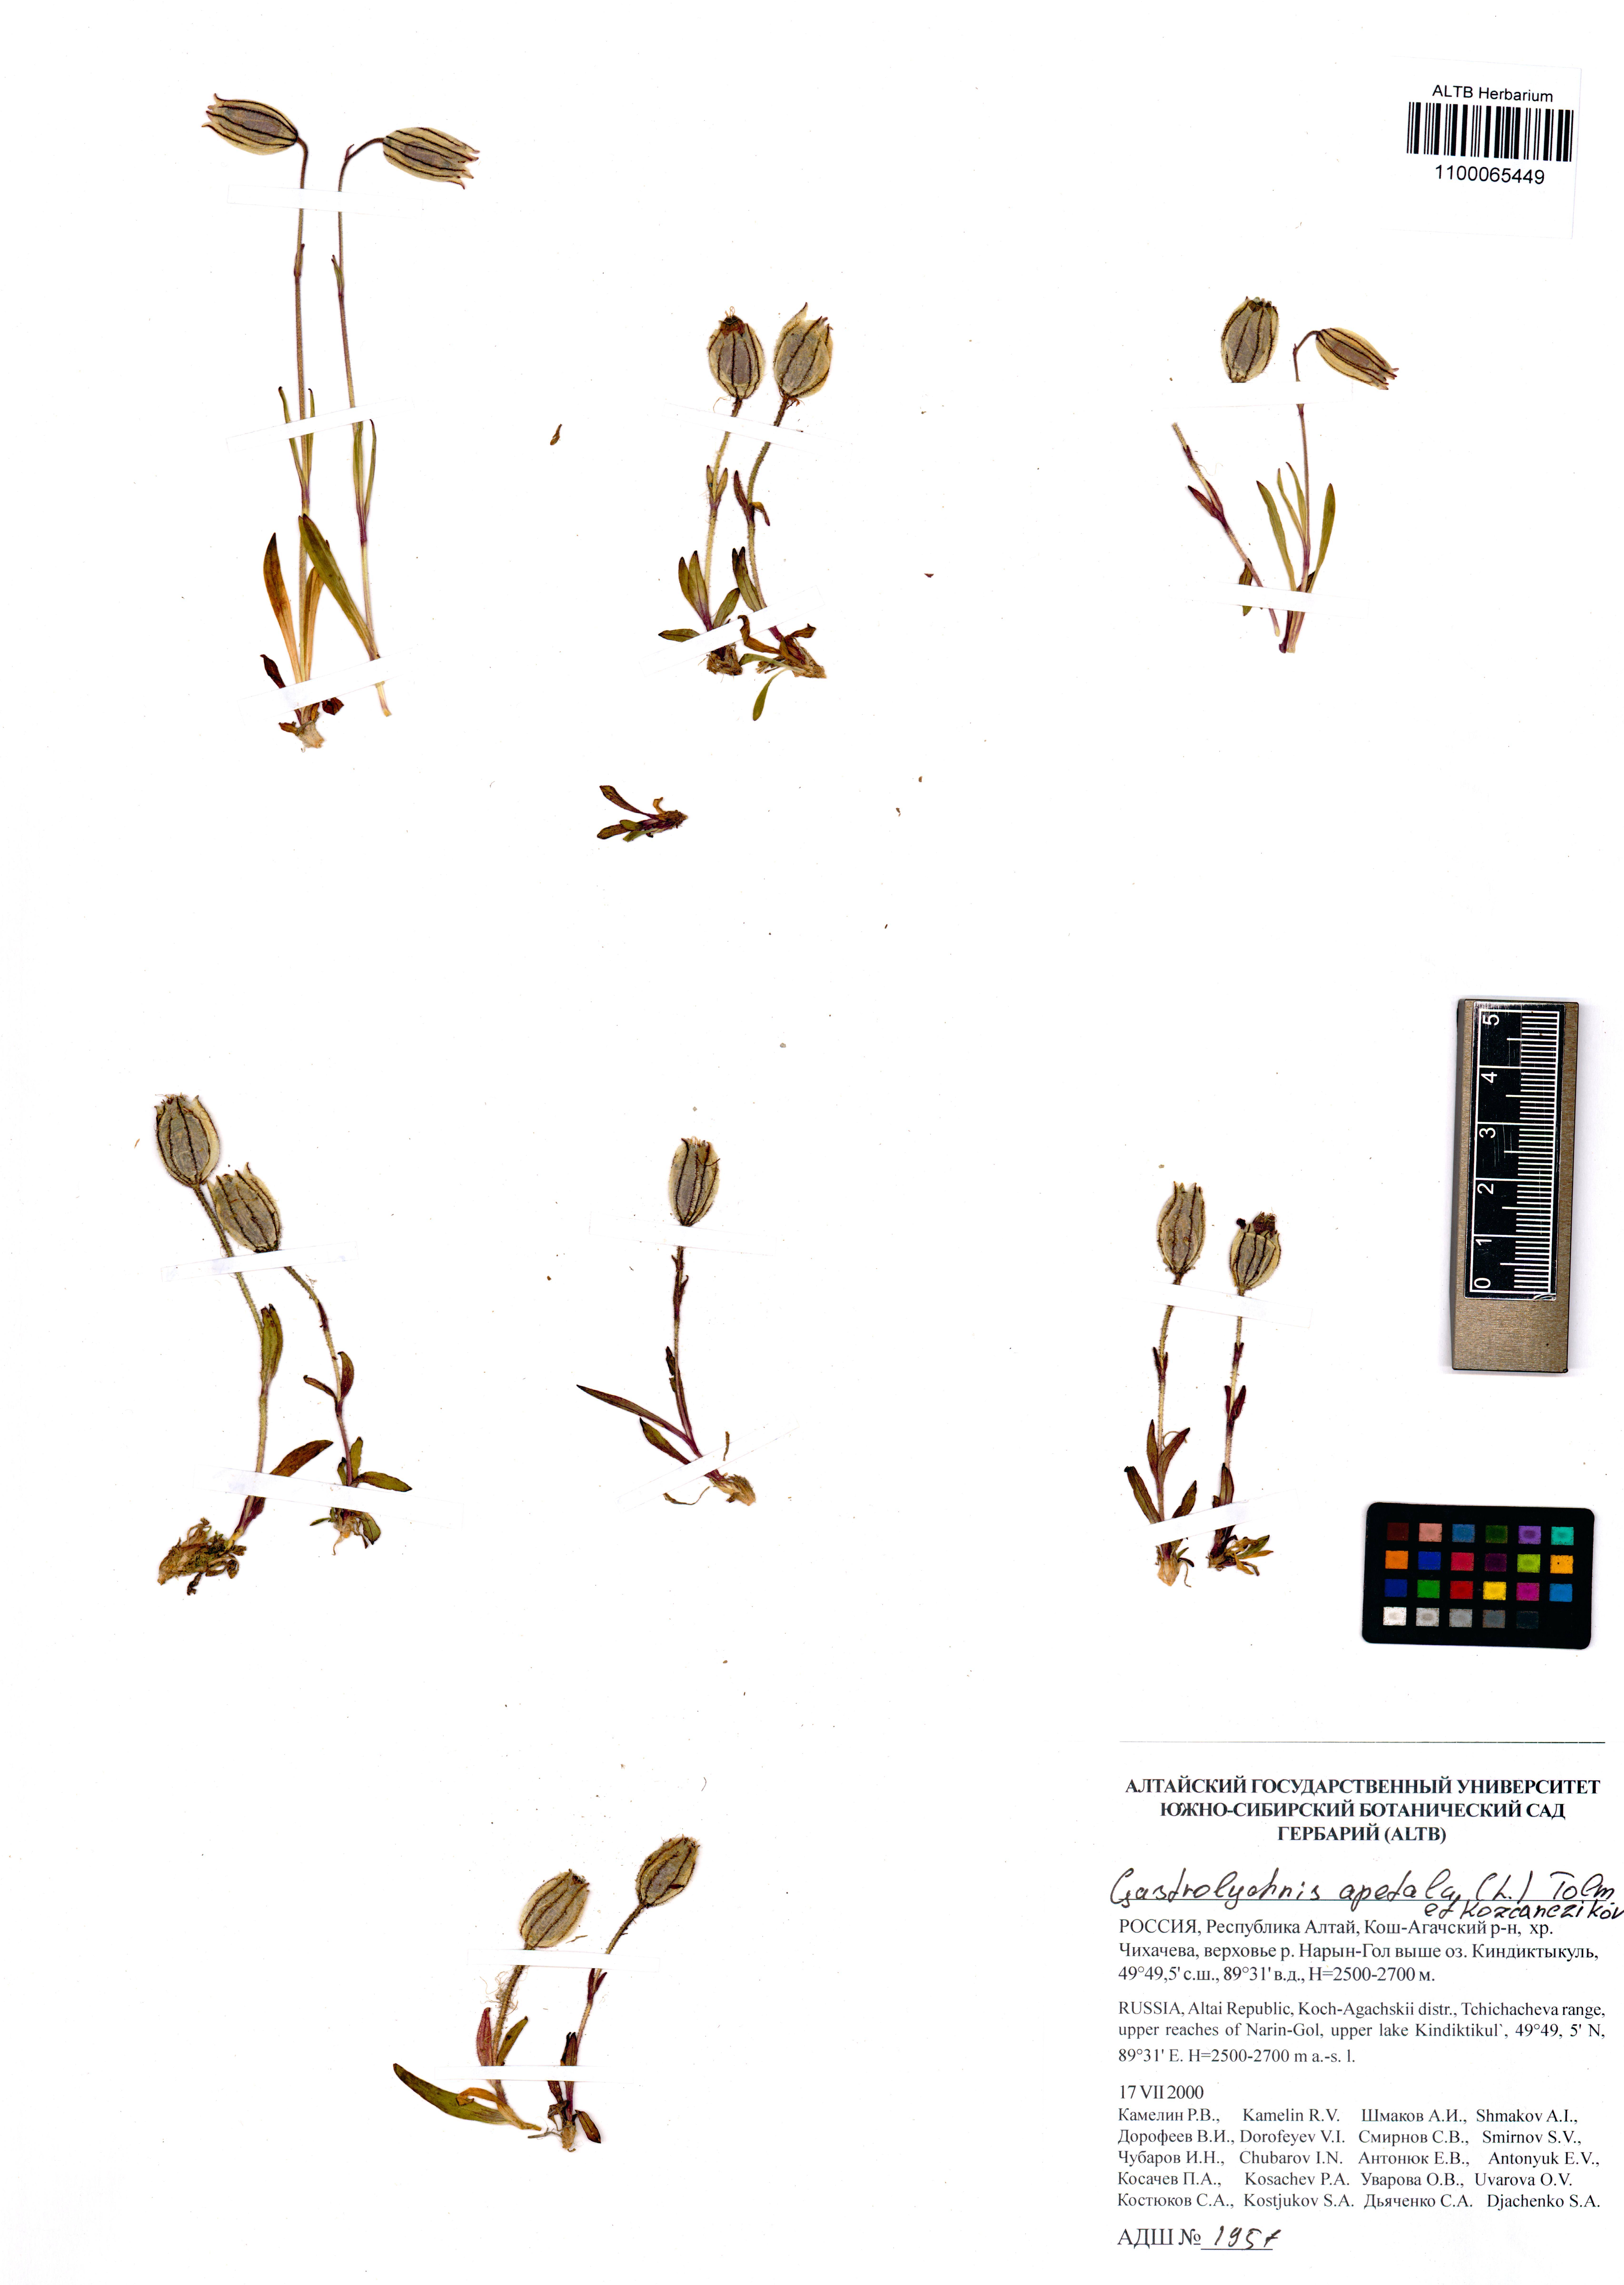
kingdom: Plantae
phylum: Tracheophyta
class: Magnoliopsida
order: Caryophyllales
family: Caryophyllaceae
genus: Silene
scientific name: Silene wahlbergella
